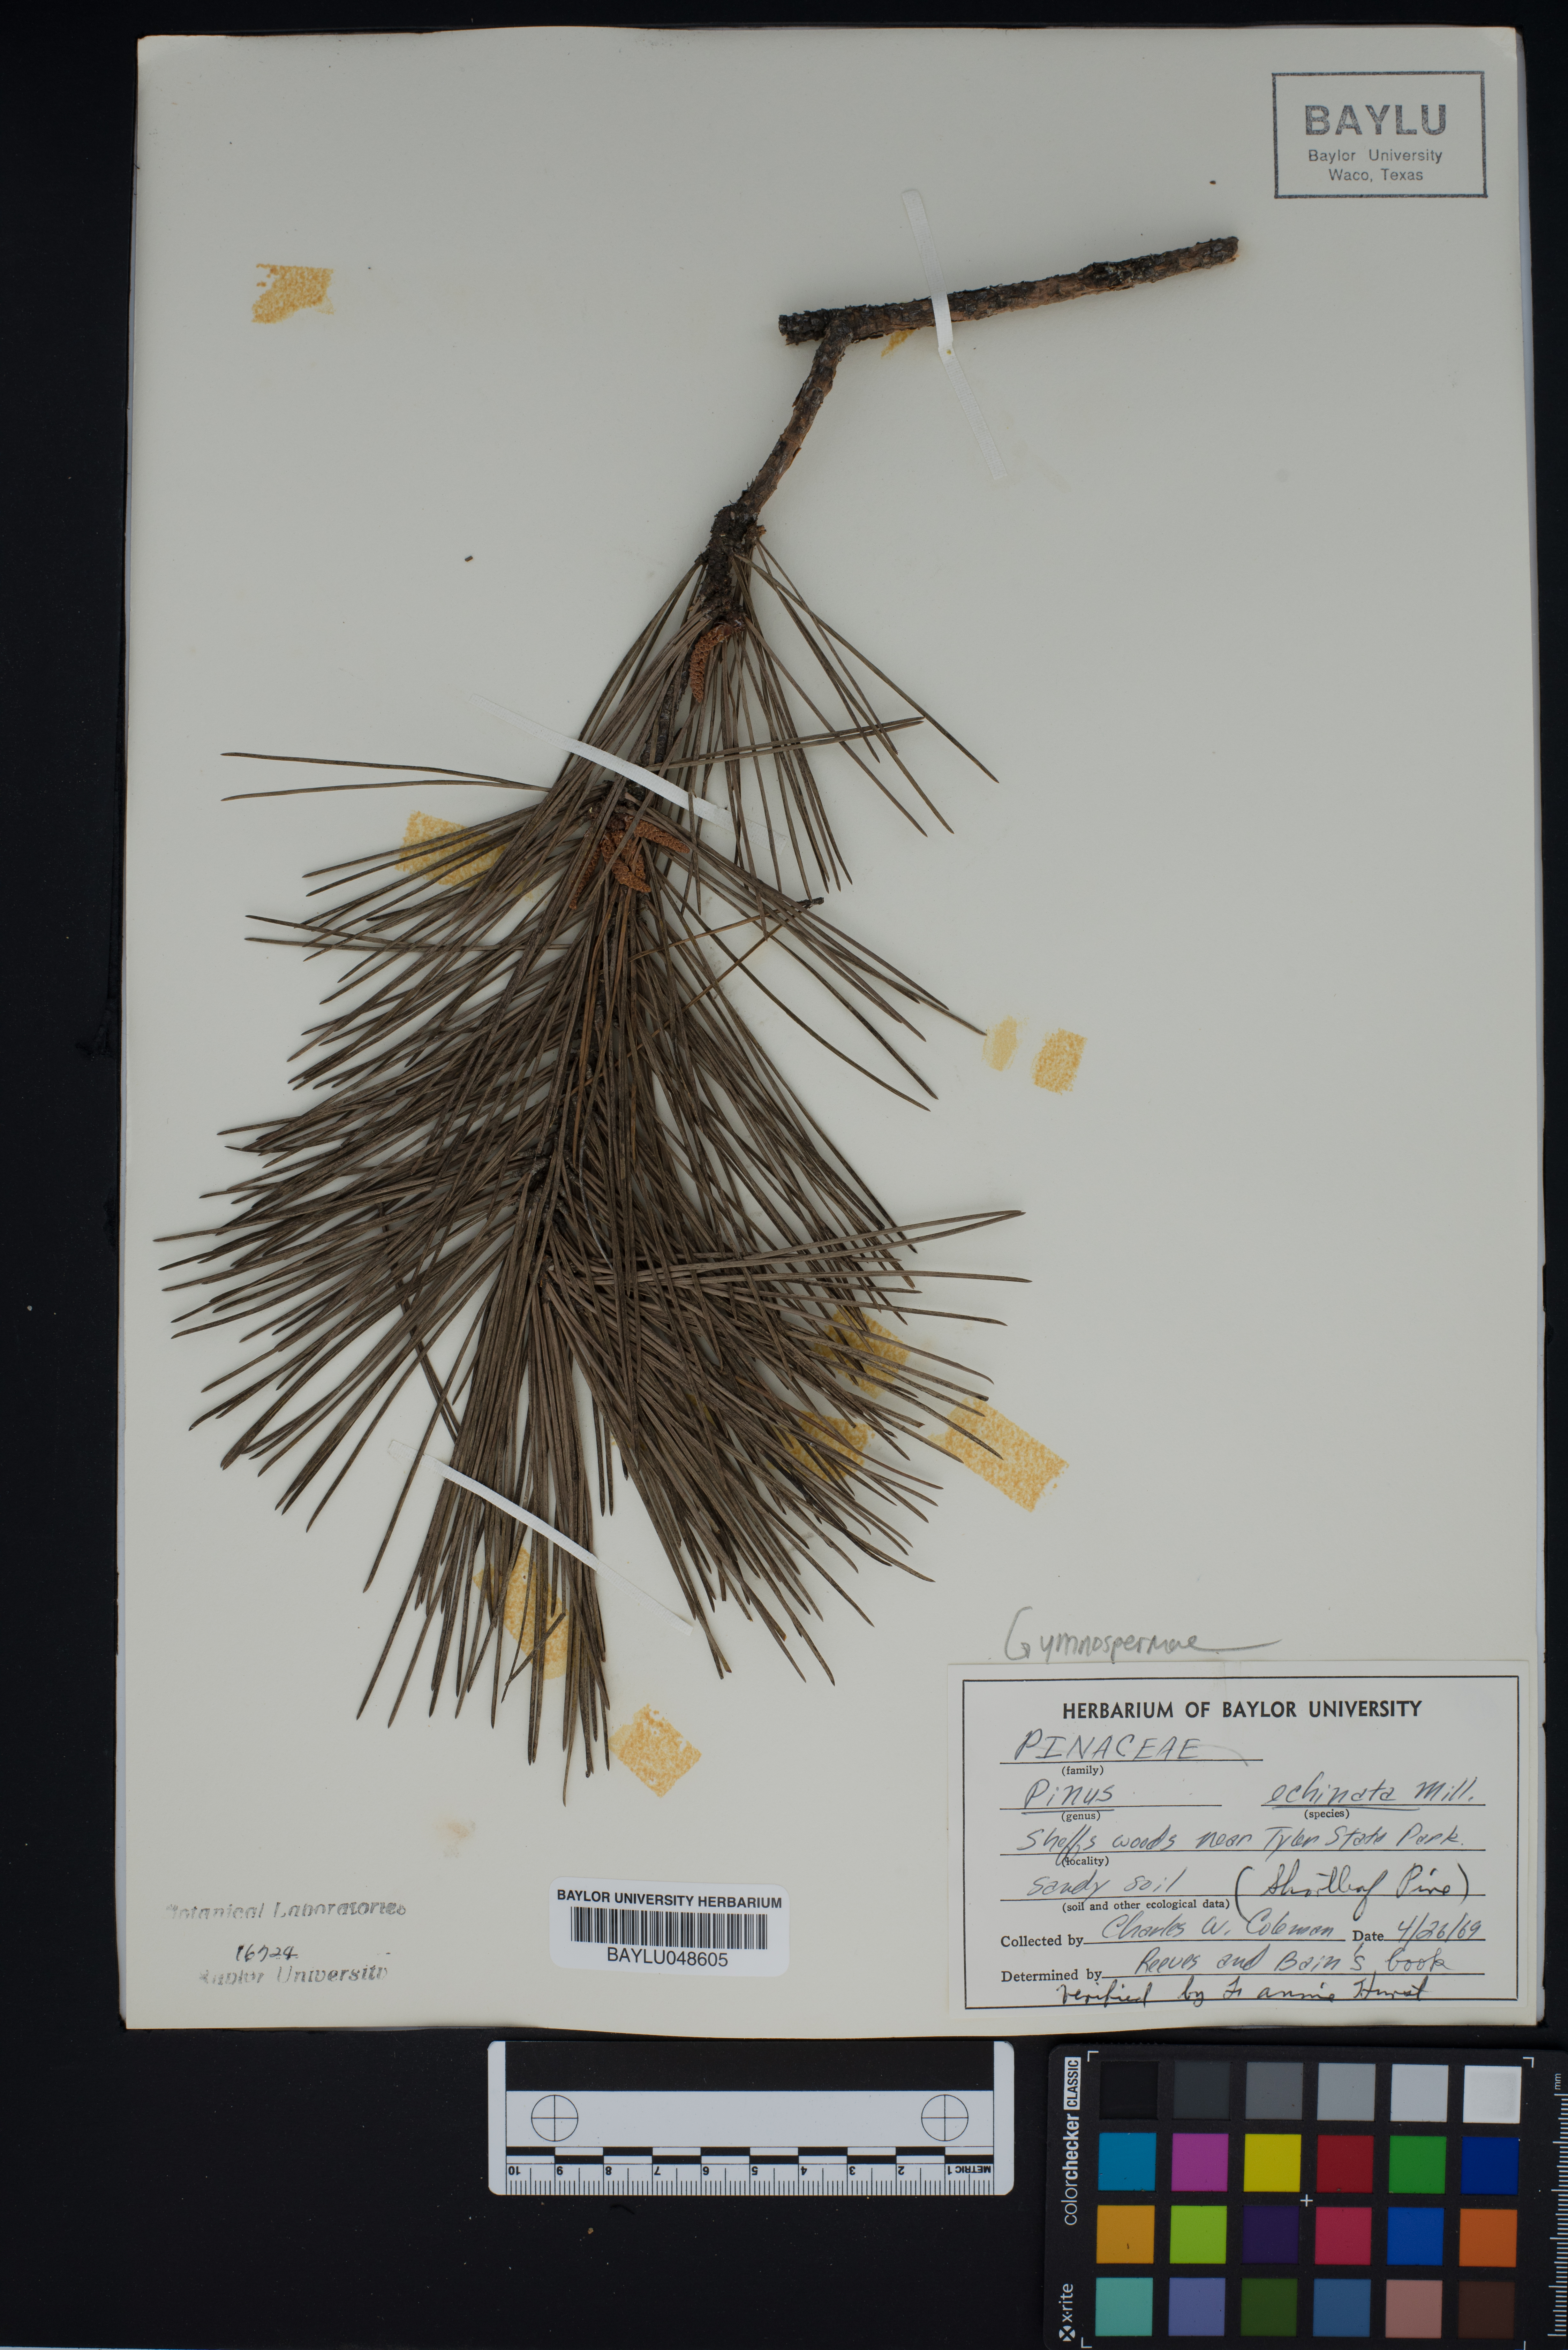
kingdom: Plantae
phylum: Tracheophyta
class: Pinopsida
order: Pinales
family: Pinaceae
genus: Pinus
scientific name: Pinus echinata
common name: Shortleaf pine
